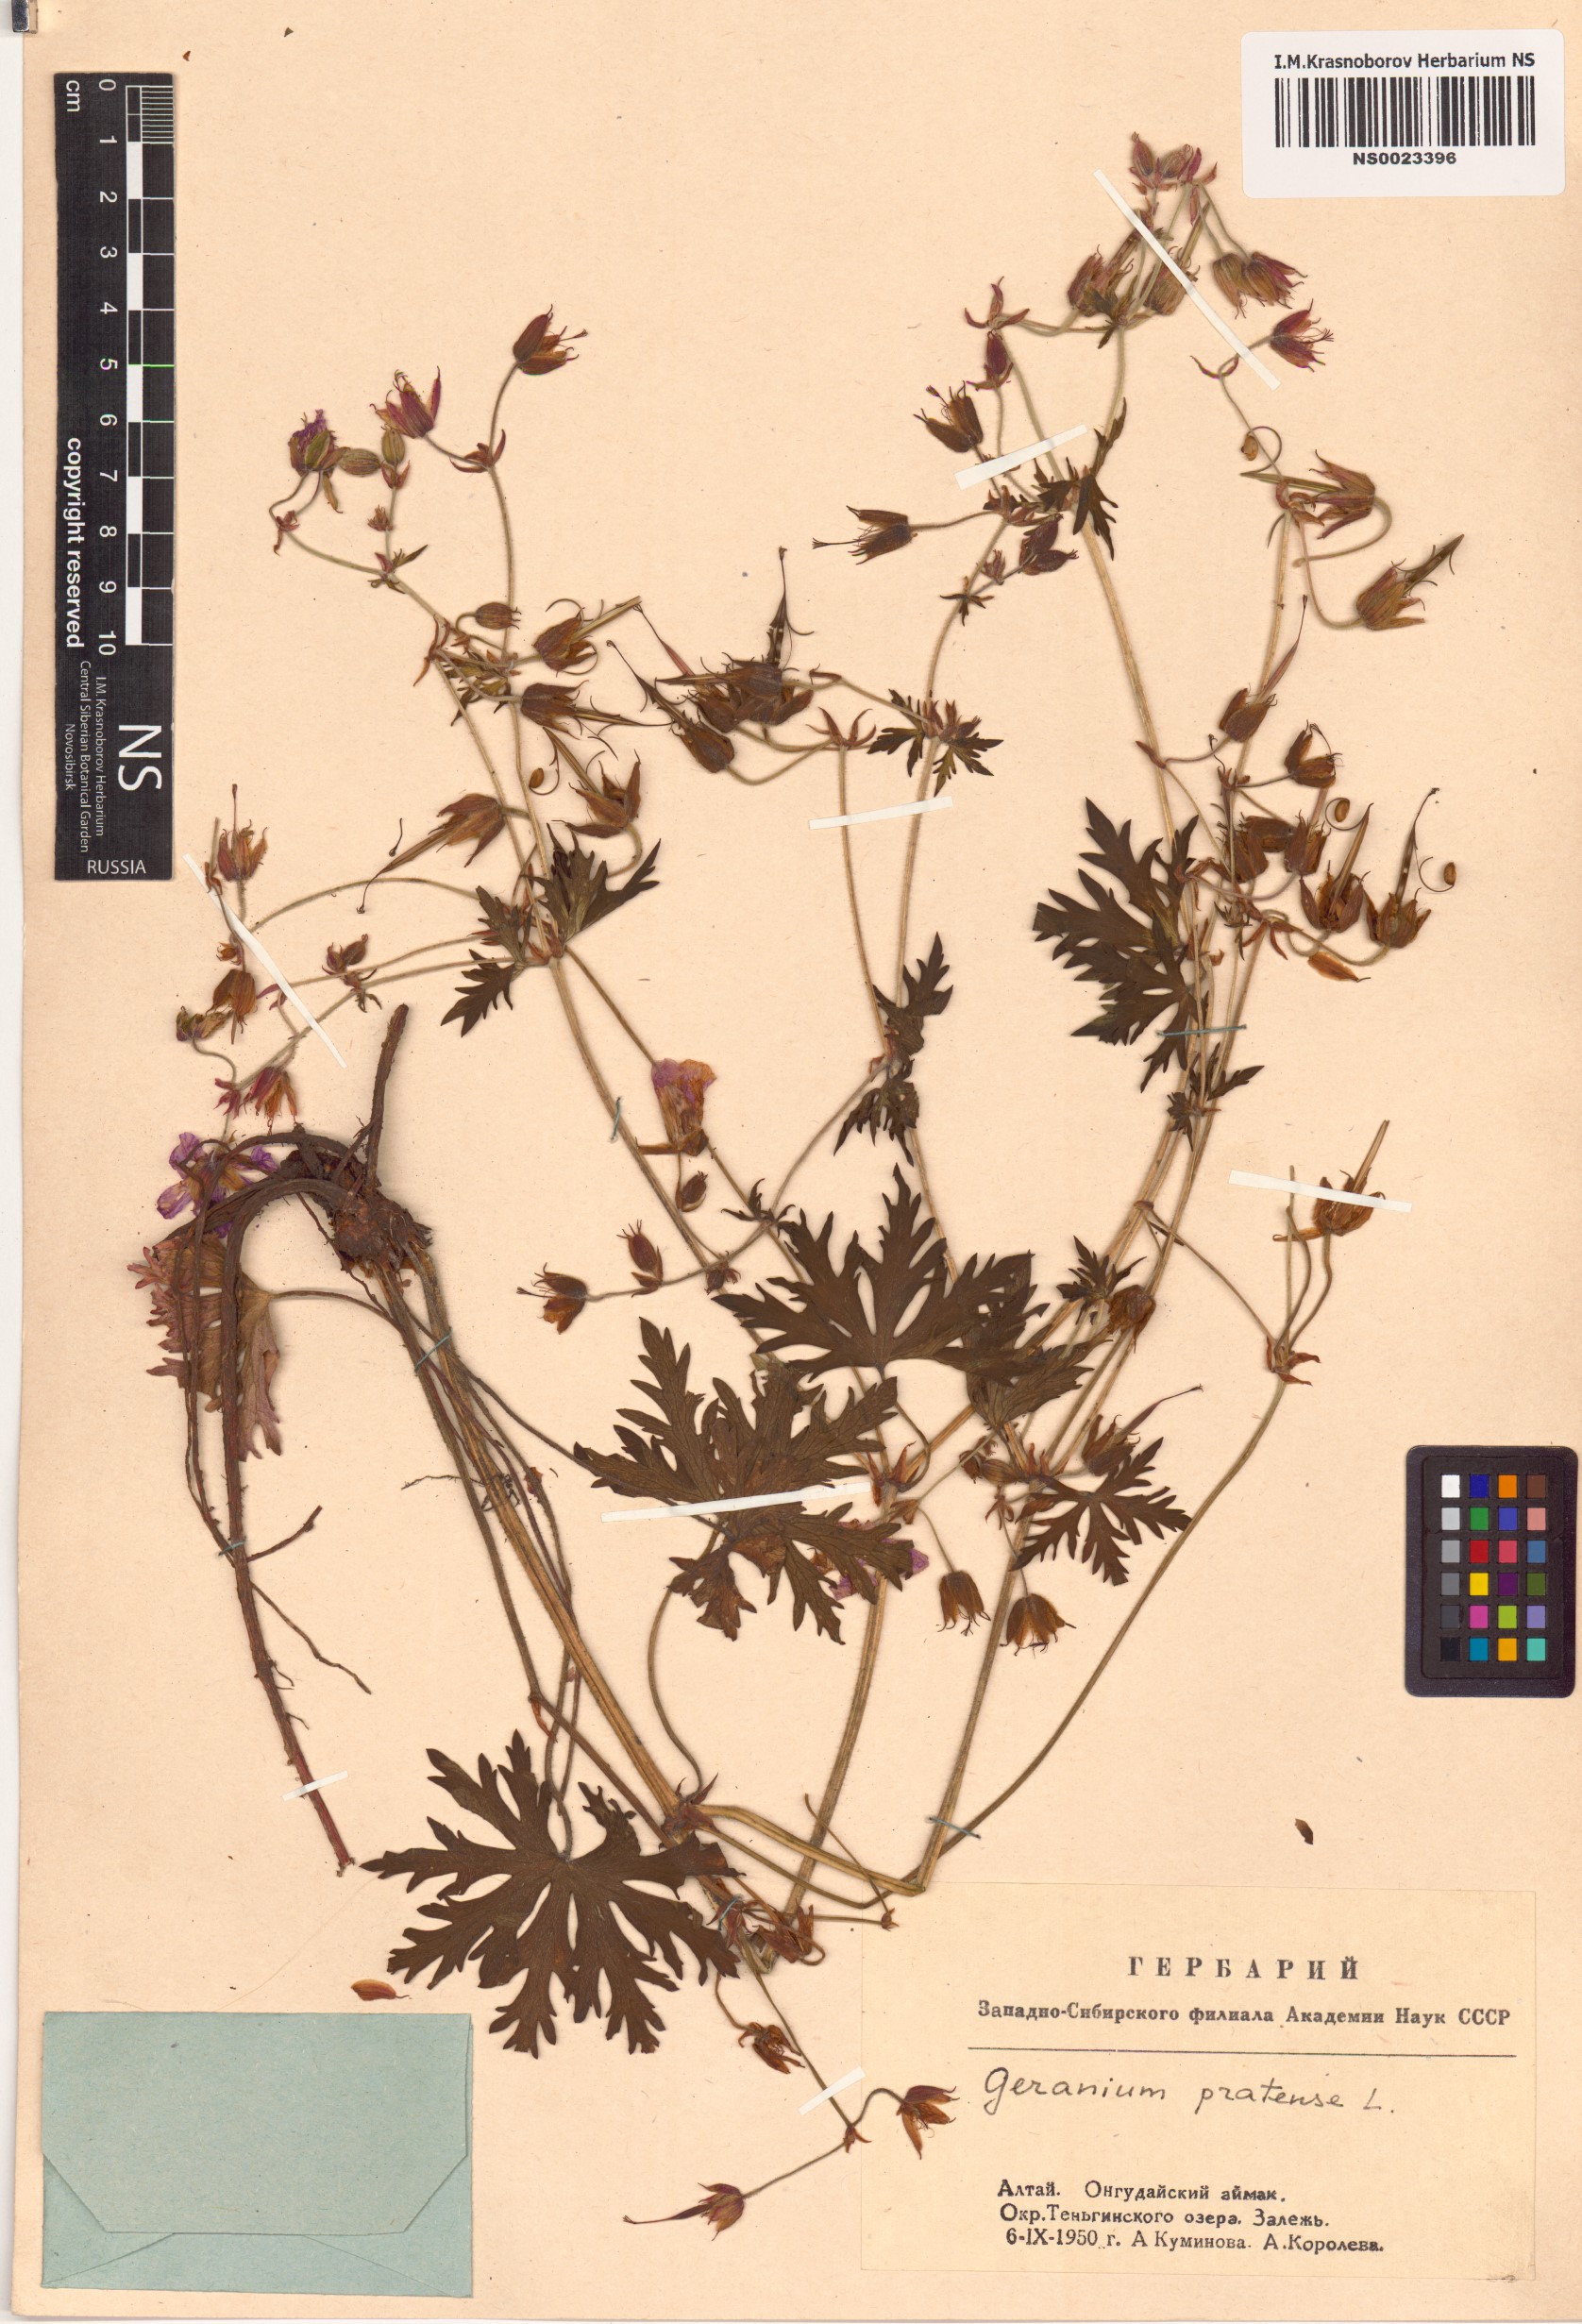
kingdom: Plantae
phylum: Tracheophyta
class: Magnoliopsida
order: Geraniales
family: Geraniaceae
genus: Geranium
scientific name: Geranium pratense
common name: Meadow crane's-bill
